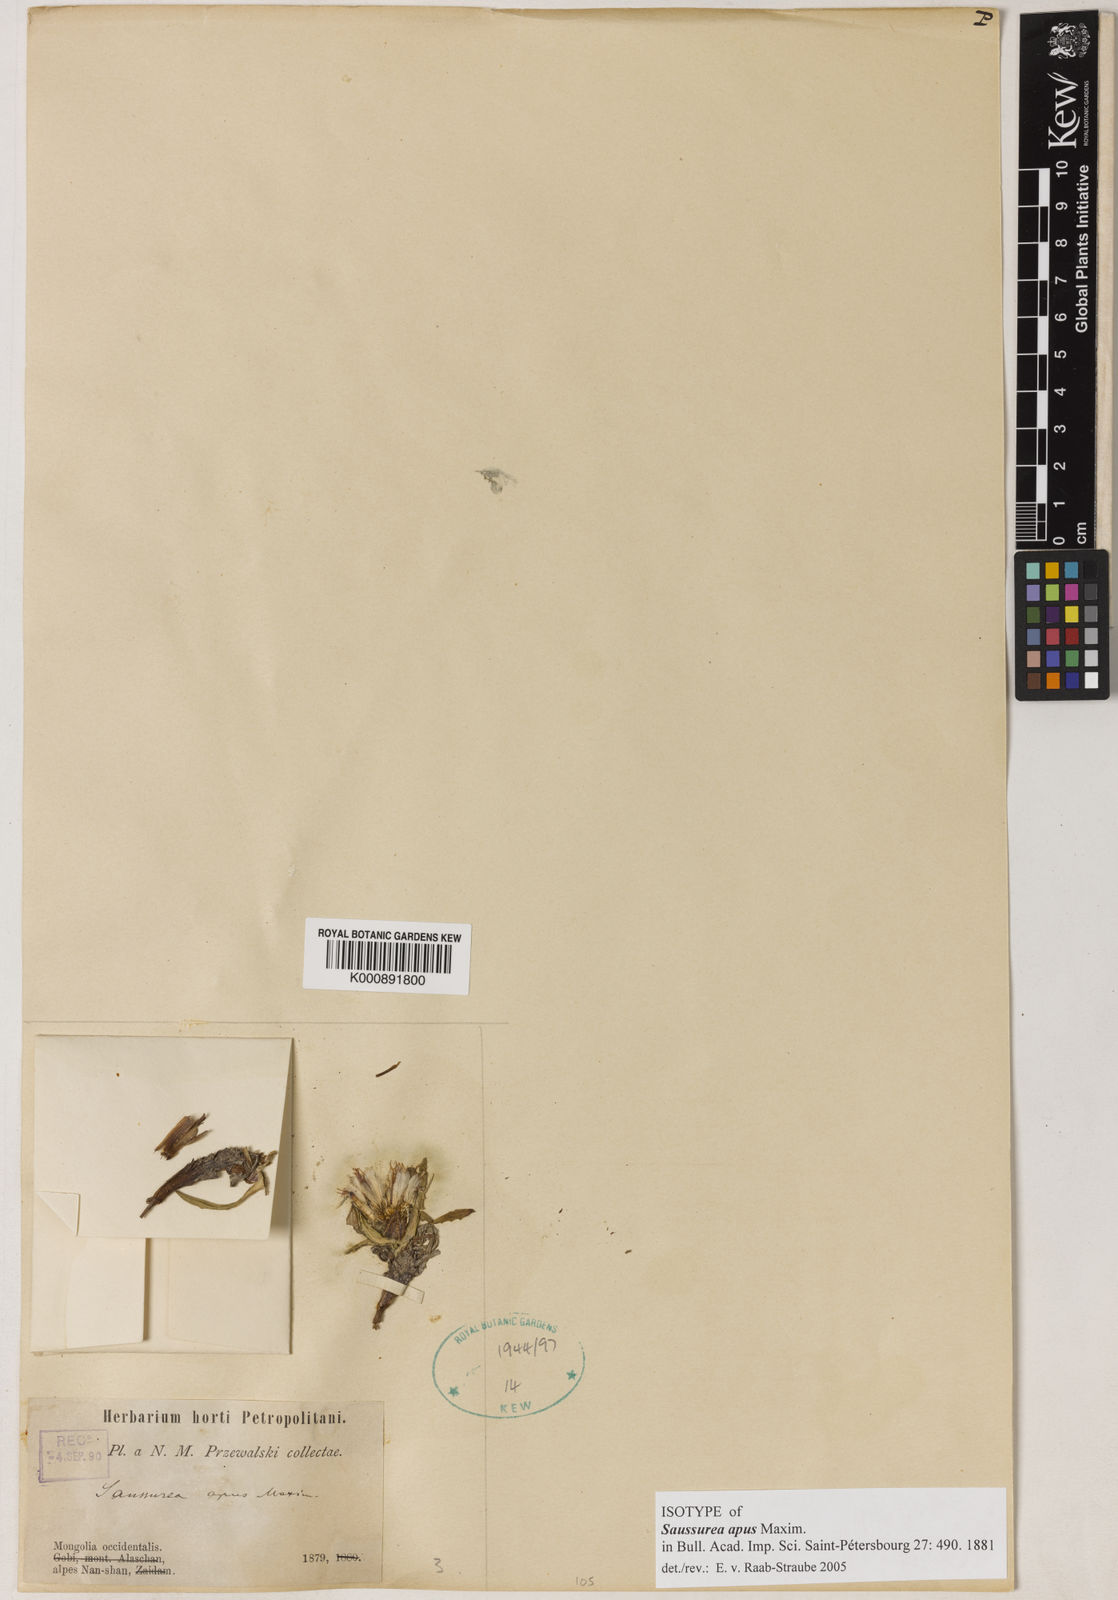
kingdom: Plantae
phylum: Tracheophyta
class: Magnoliopsida
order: Asterales
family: Asteraceae
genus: Saussurea
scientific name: Saussurea apus
